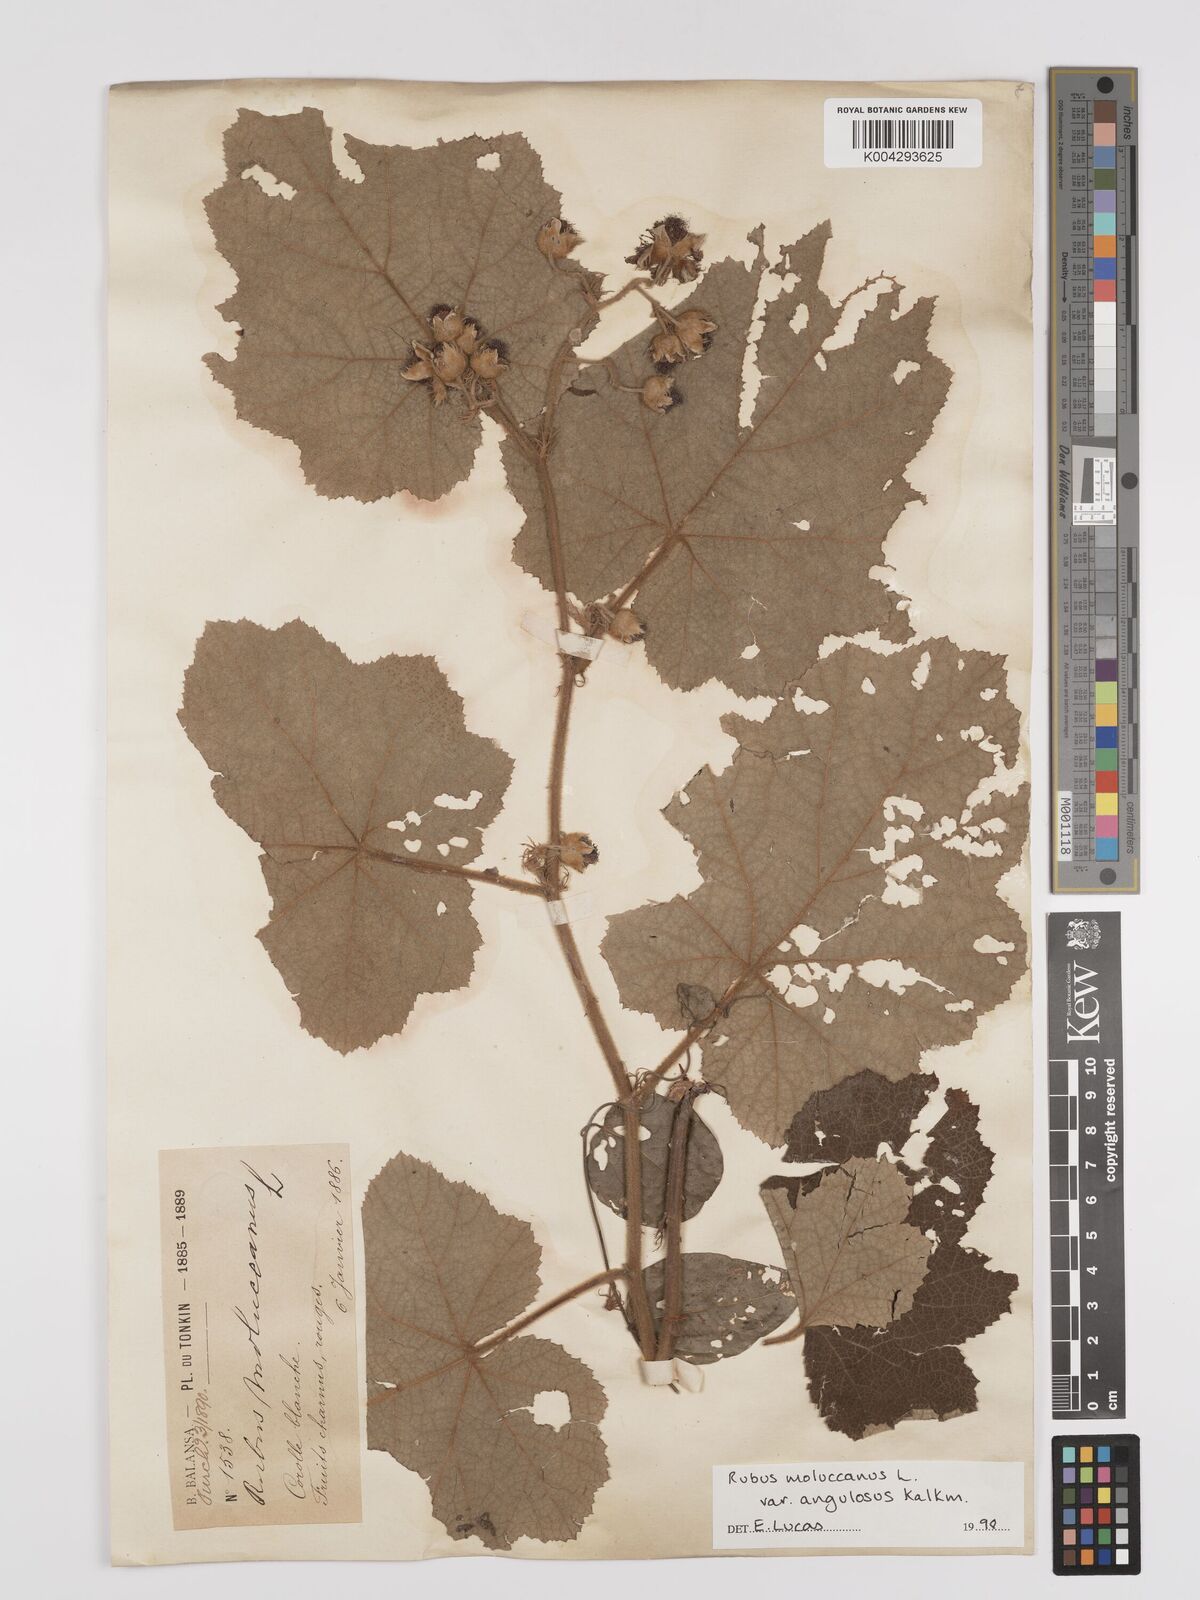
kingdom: Plantae
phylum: Tracheophyta
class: Magnoliopsida
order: Rosales
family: Rosaceae
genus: Rubus
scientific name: Rubus moluccanus
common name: Wild raspberry
